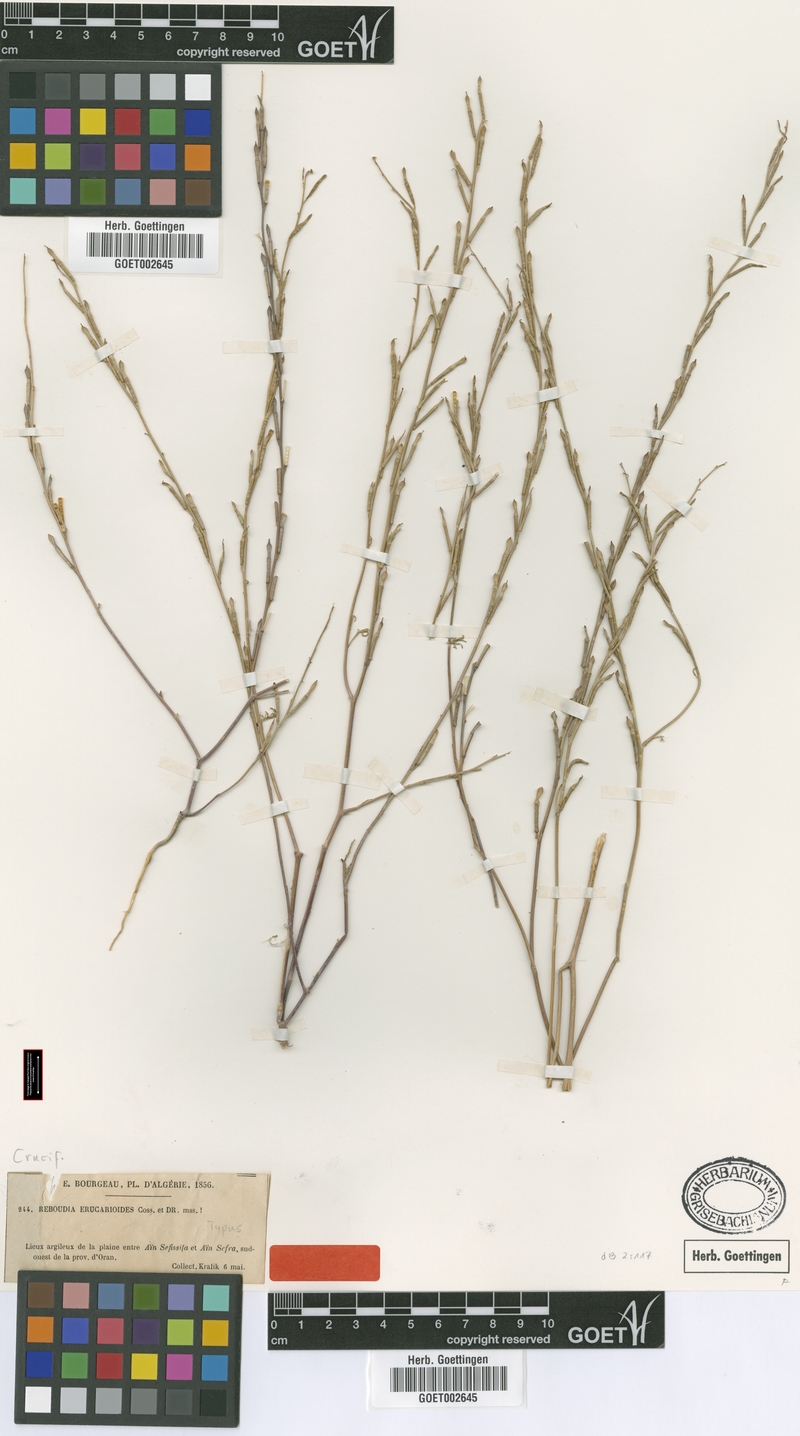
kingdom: Plantae
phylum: Tracheophyta
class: Magnoliopsida
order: Brassicales
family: Brassicaceae
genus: Erucaria
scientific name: Erucaria erucarioides
